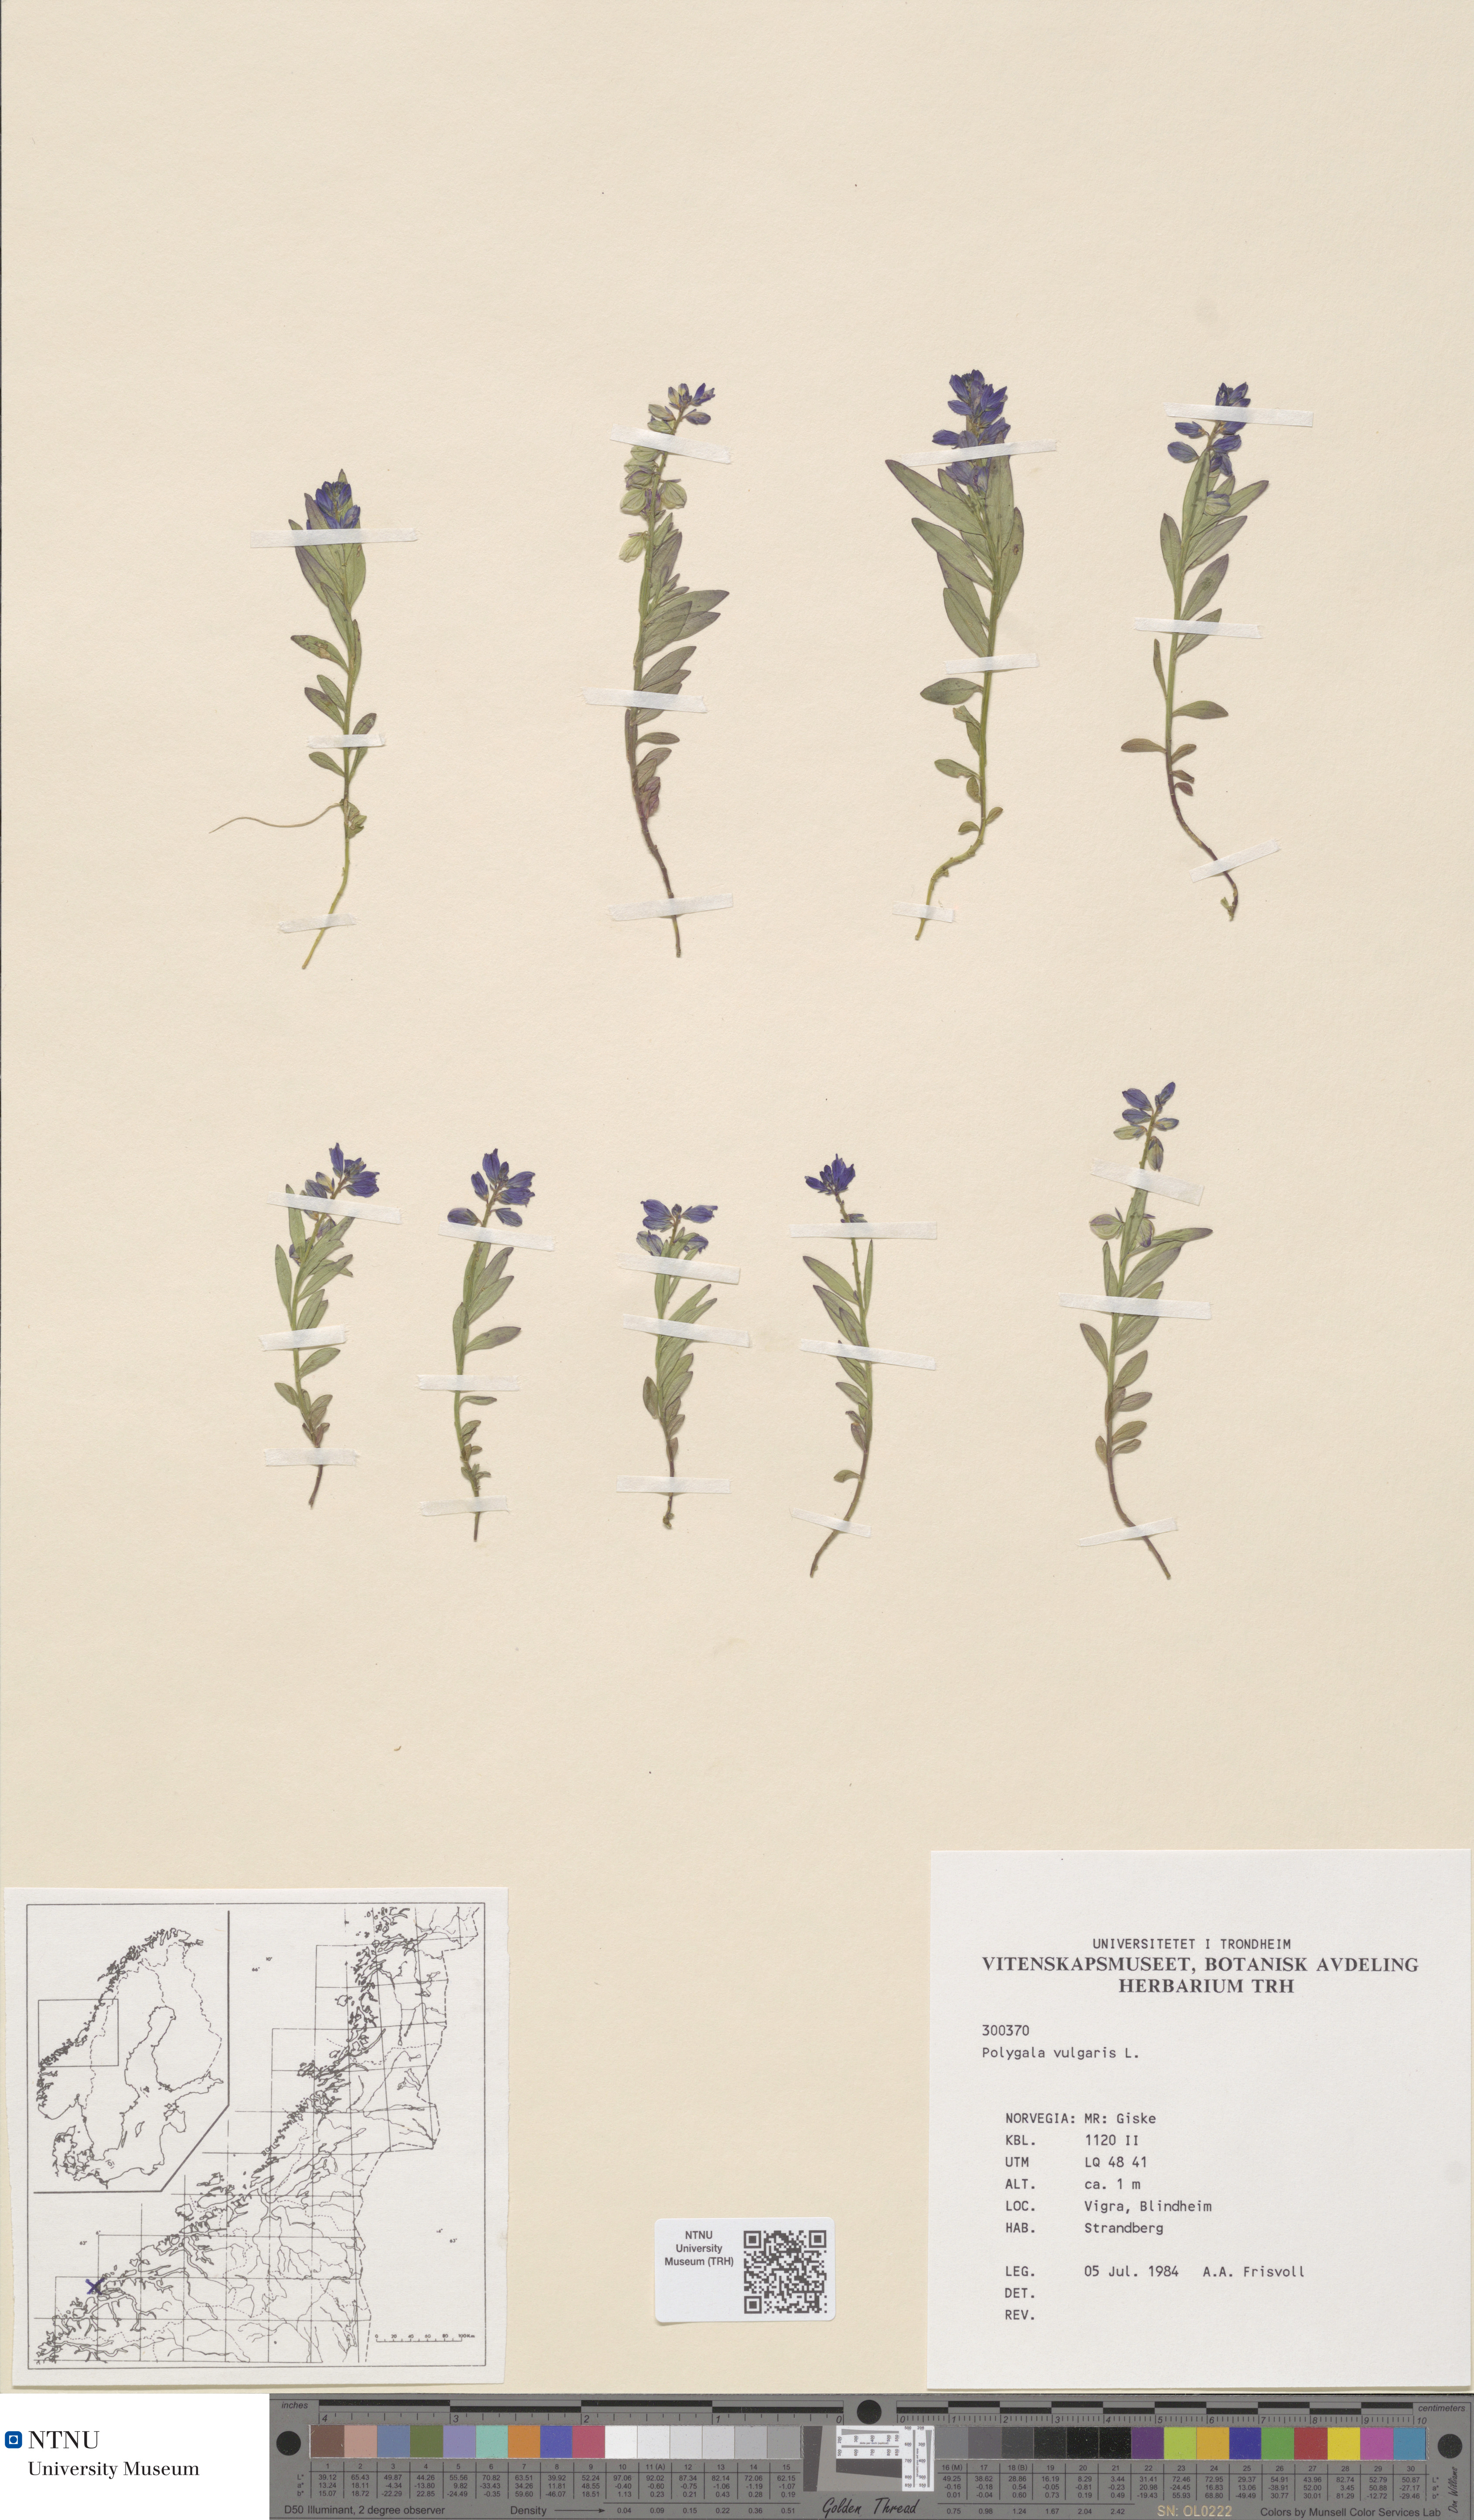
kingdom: Plantae
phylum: Tracheophyta
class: Magnoliopsida
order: Fabales
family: Polygalaceae
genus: Polygala
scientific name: Polygala vulgaris
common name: Common milkwort
